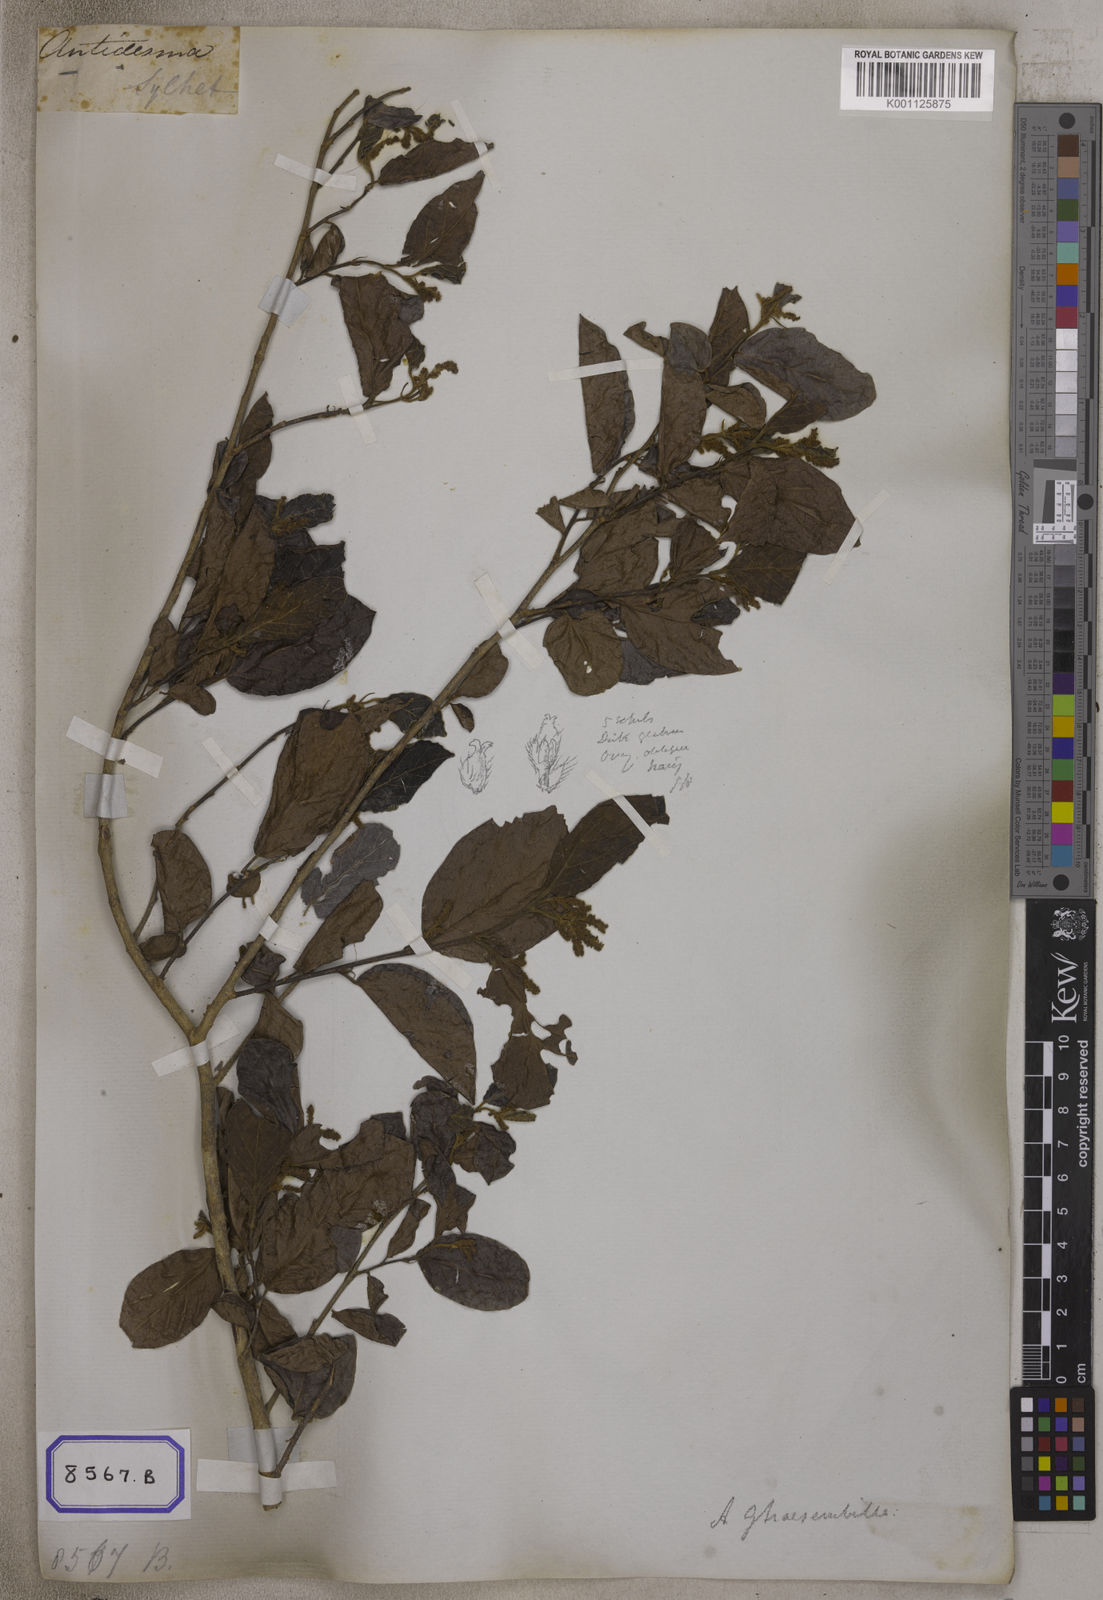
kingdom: Plantae
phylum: Tracheophyta
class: Magnoliopsida
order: Malpighiales
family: Phyllanthaceae
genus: Antidesma
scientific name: Antidesma ghaesembilla
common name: Black currant-tree
